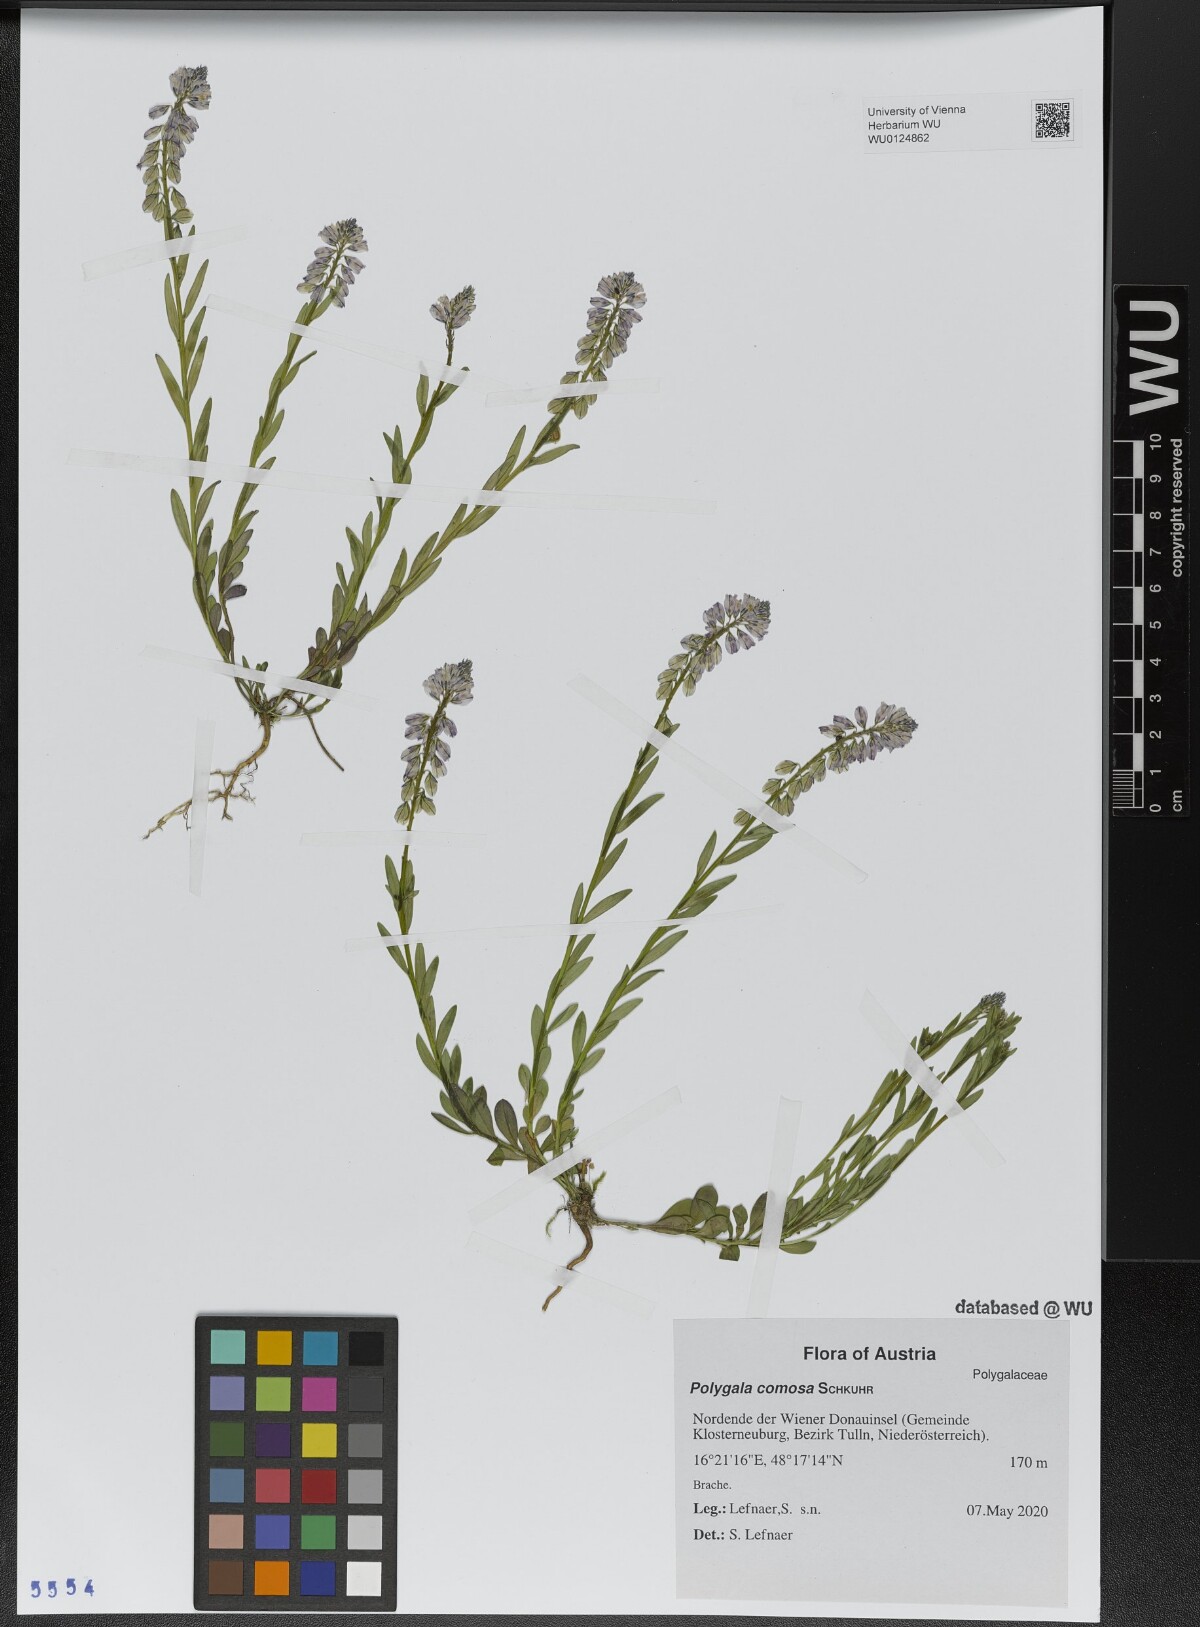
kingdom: Plantae
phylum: Tracheophyta
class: Magnoliopsida
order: Fabales
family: Polygalaceae
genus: Polygala
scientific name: Polygala comosa
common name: Tufted milkwort
